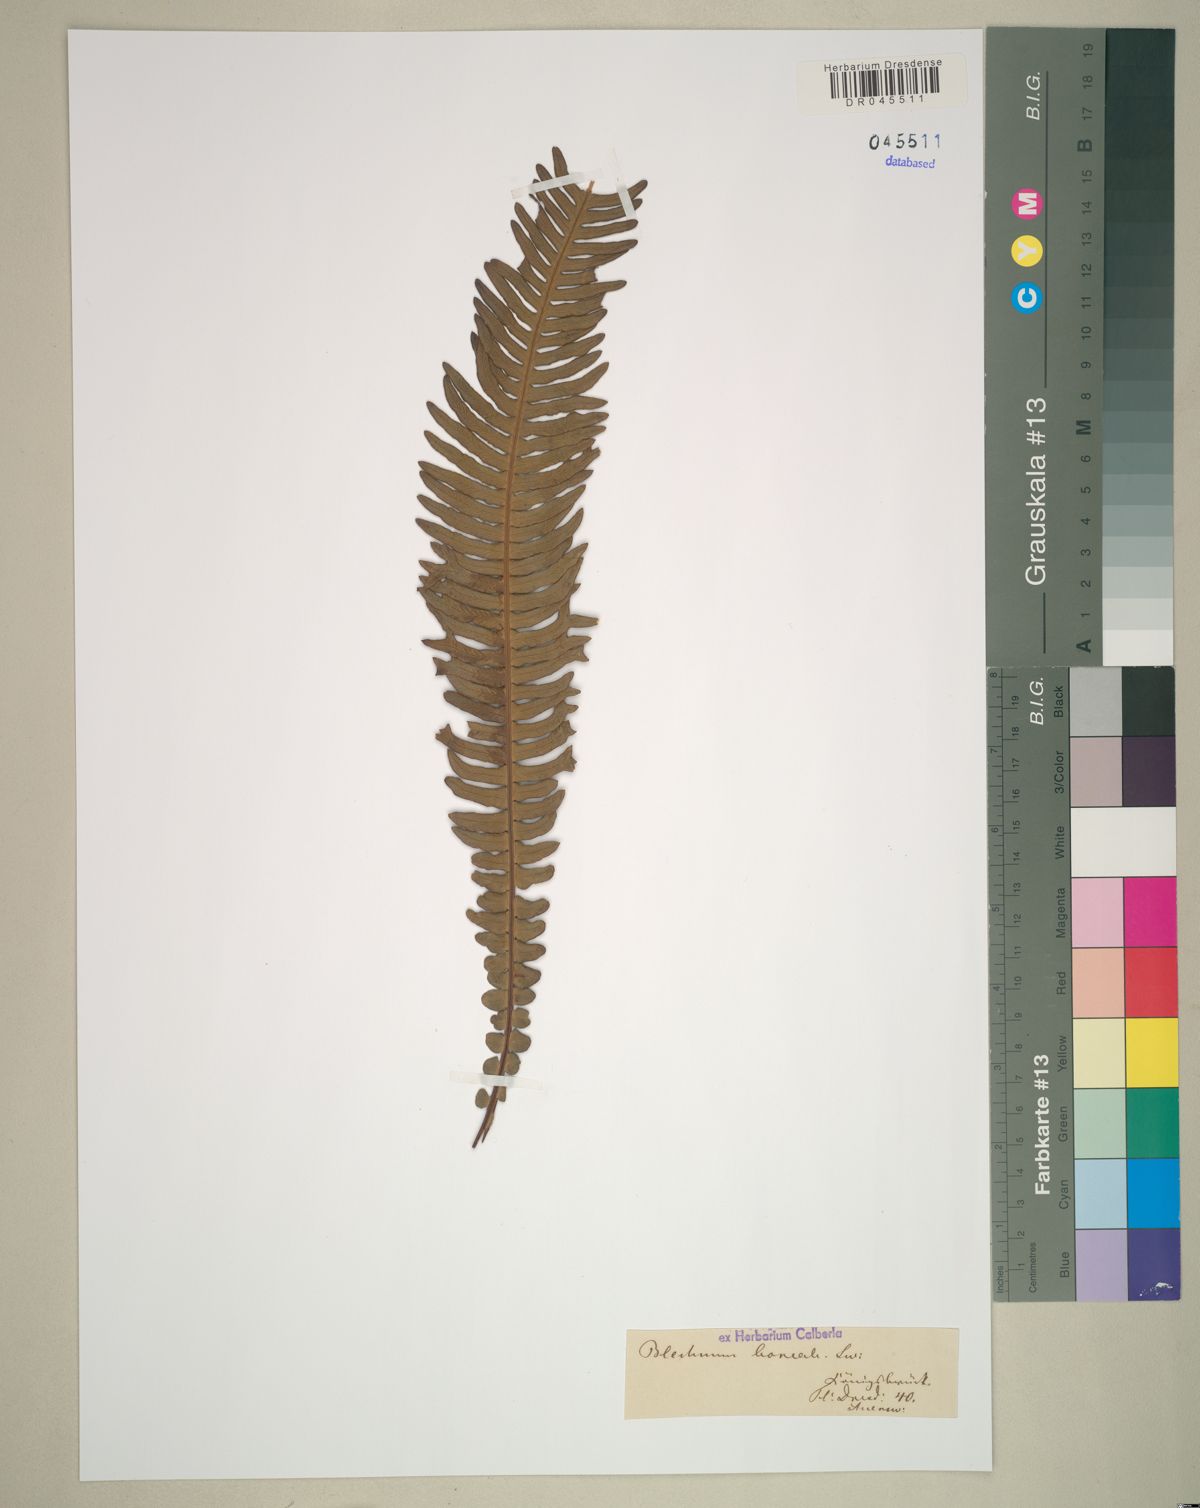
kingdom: Plantae
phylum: Tracheophyta
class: Polypodiopsida
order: Polypodiales
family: Blechnaceae
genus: Struthiopteris
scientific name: Struthiopteris spicant
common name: Deer fern
